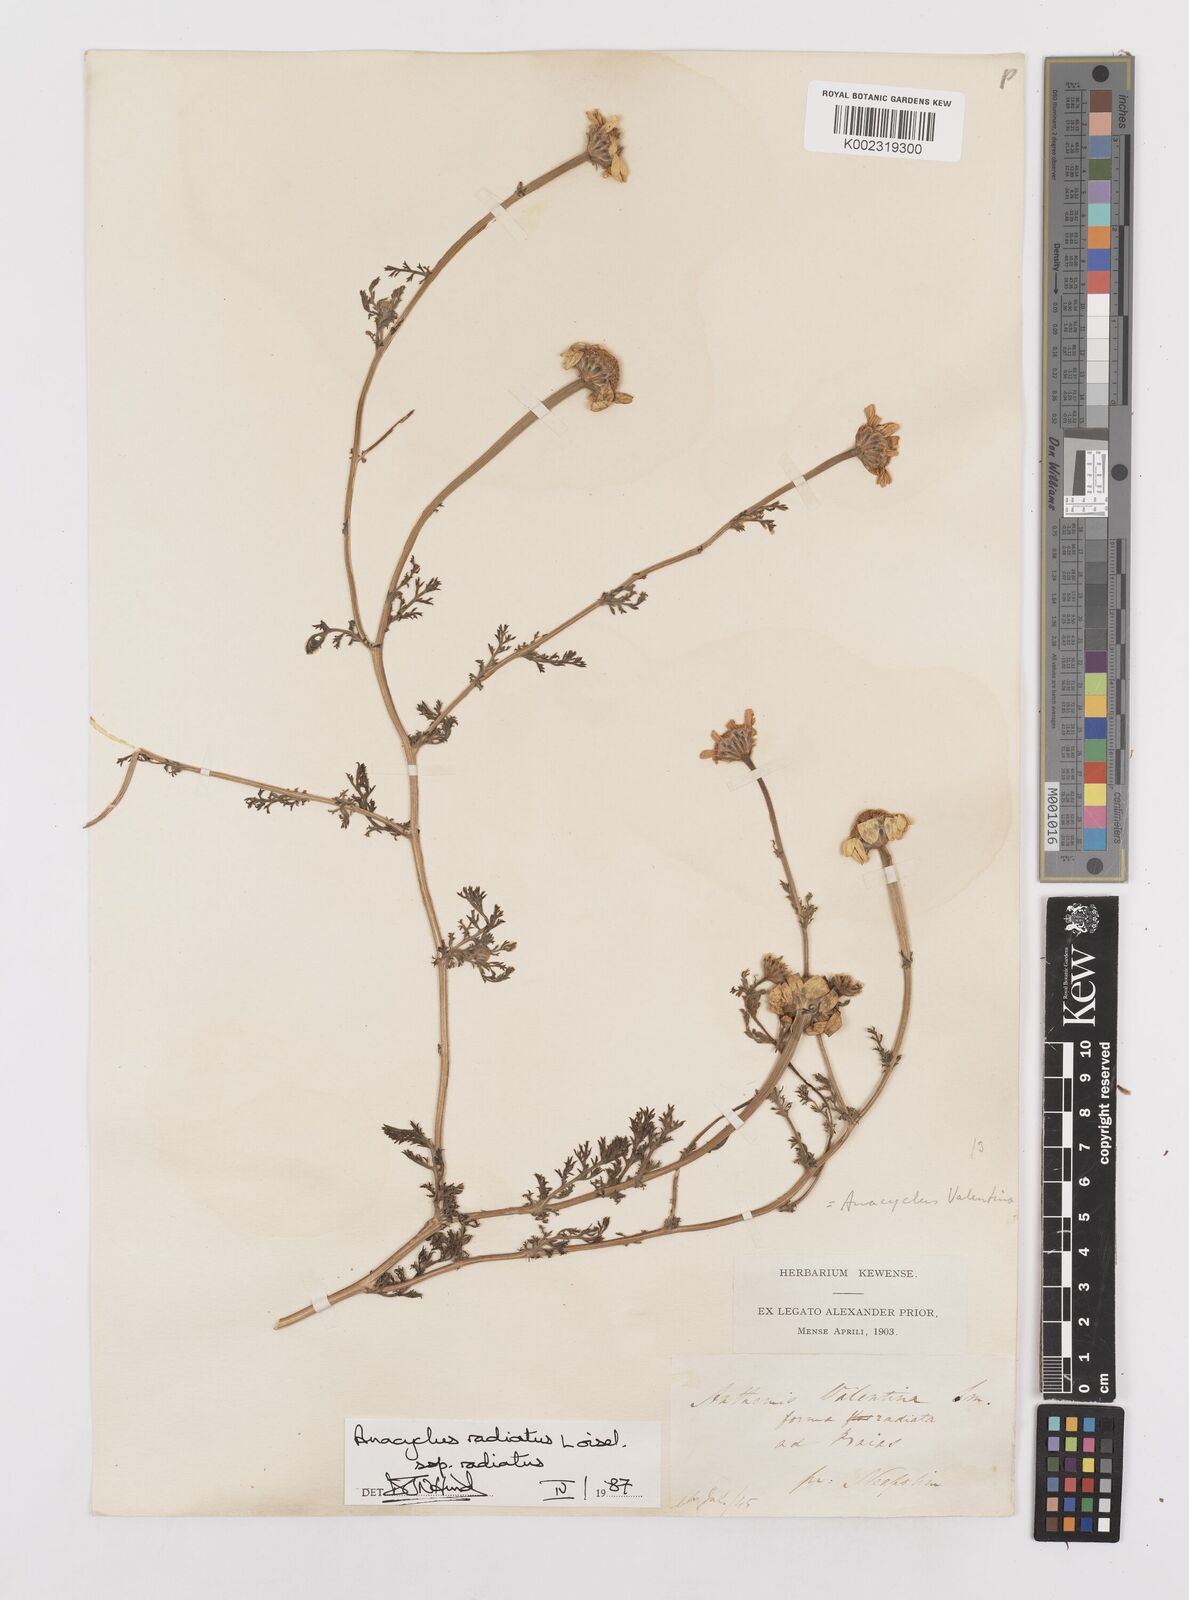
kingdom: Plantae
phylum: Tracheophyta
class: Magnoliopsida
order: Asterales
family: Asteraceae
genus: Anacyclus
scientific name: Anacyclus radiatus
